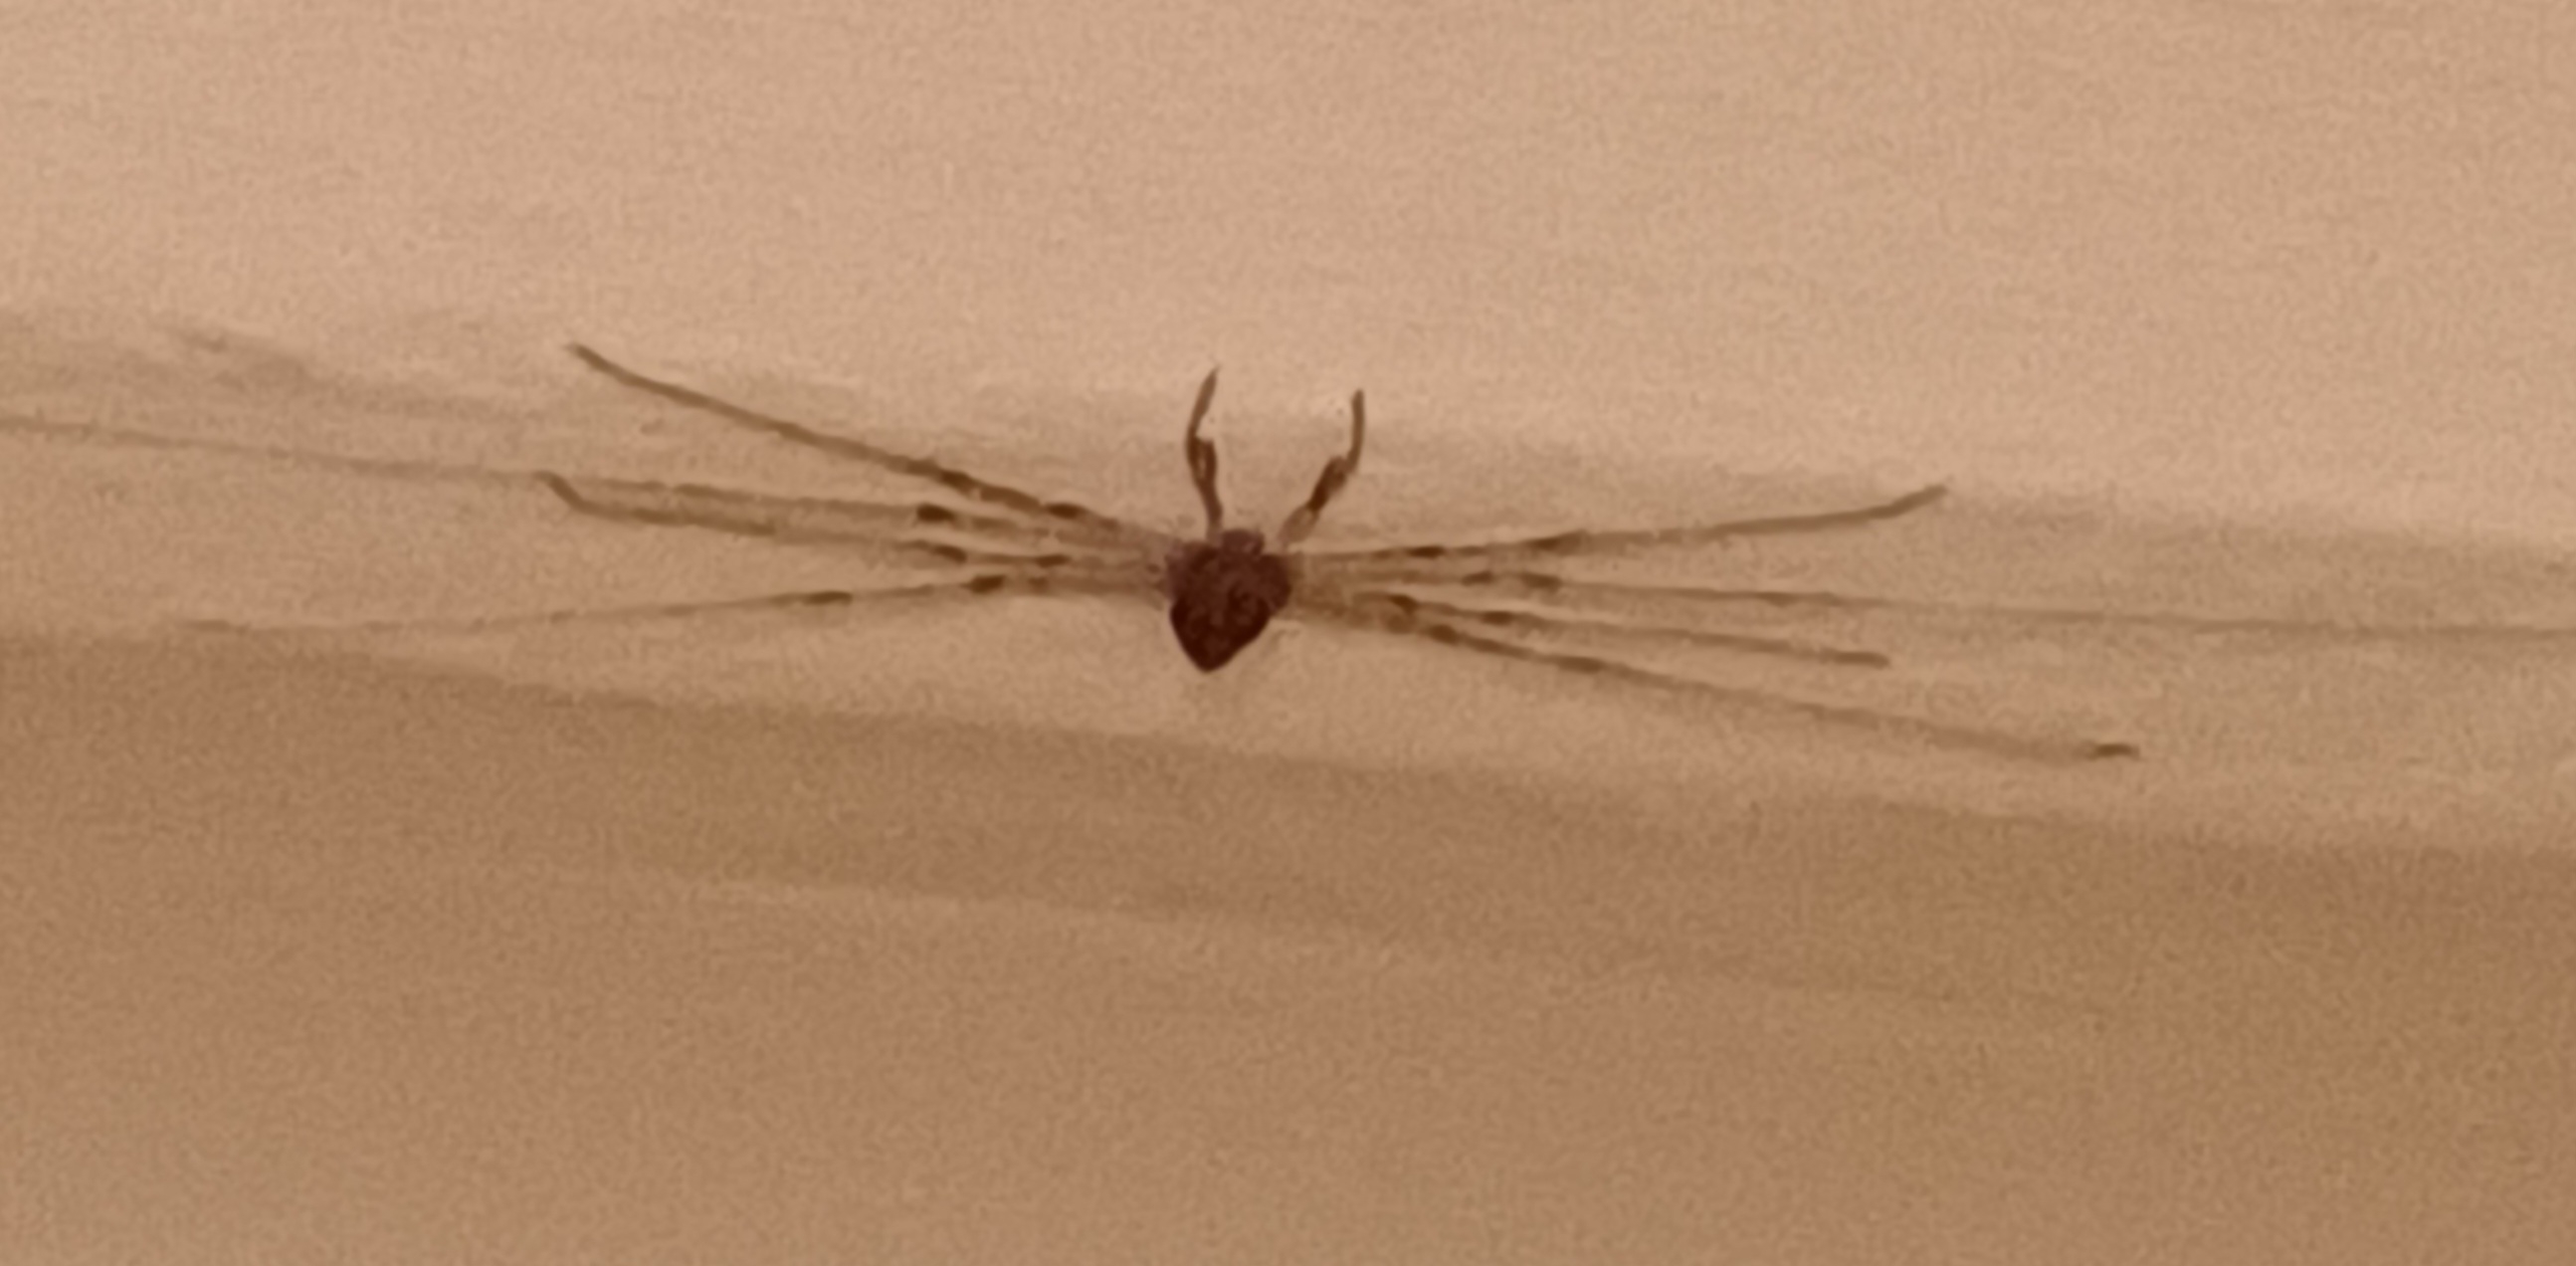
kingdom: Animalia
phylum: Arthropoda
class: Arachnida
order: Opiliones
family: Phalangiidae
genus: Dicranopalpus
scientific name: Dicranopalpus ramosus
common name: Gaffelmejer
